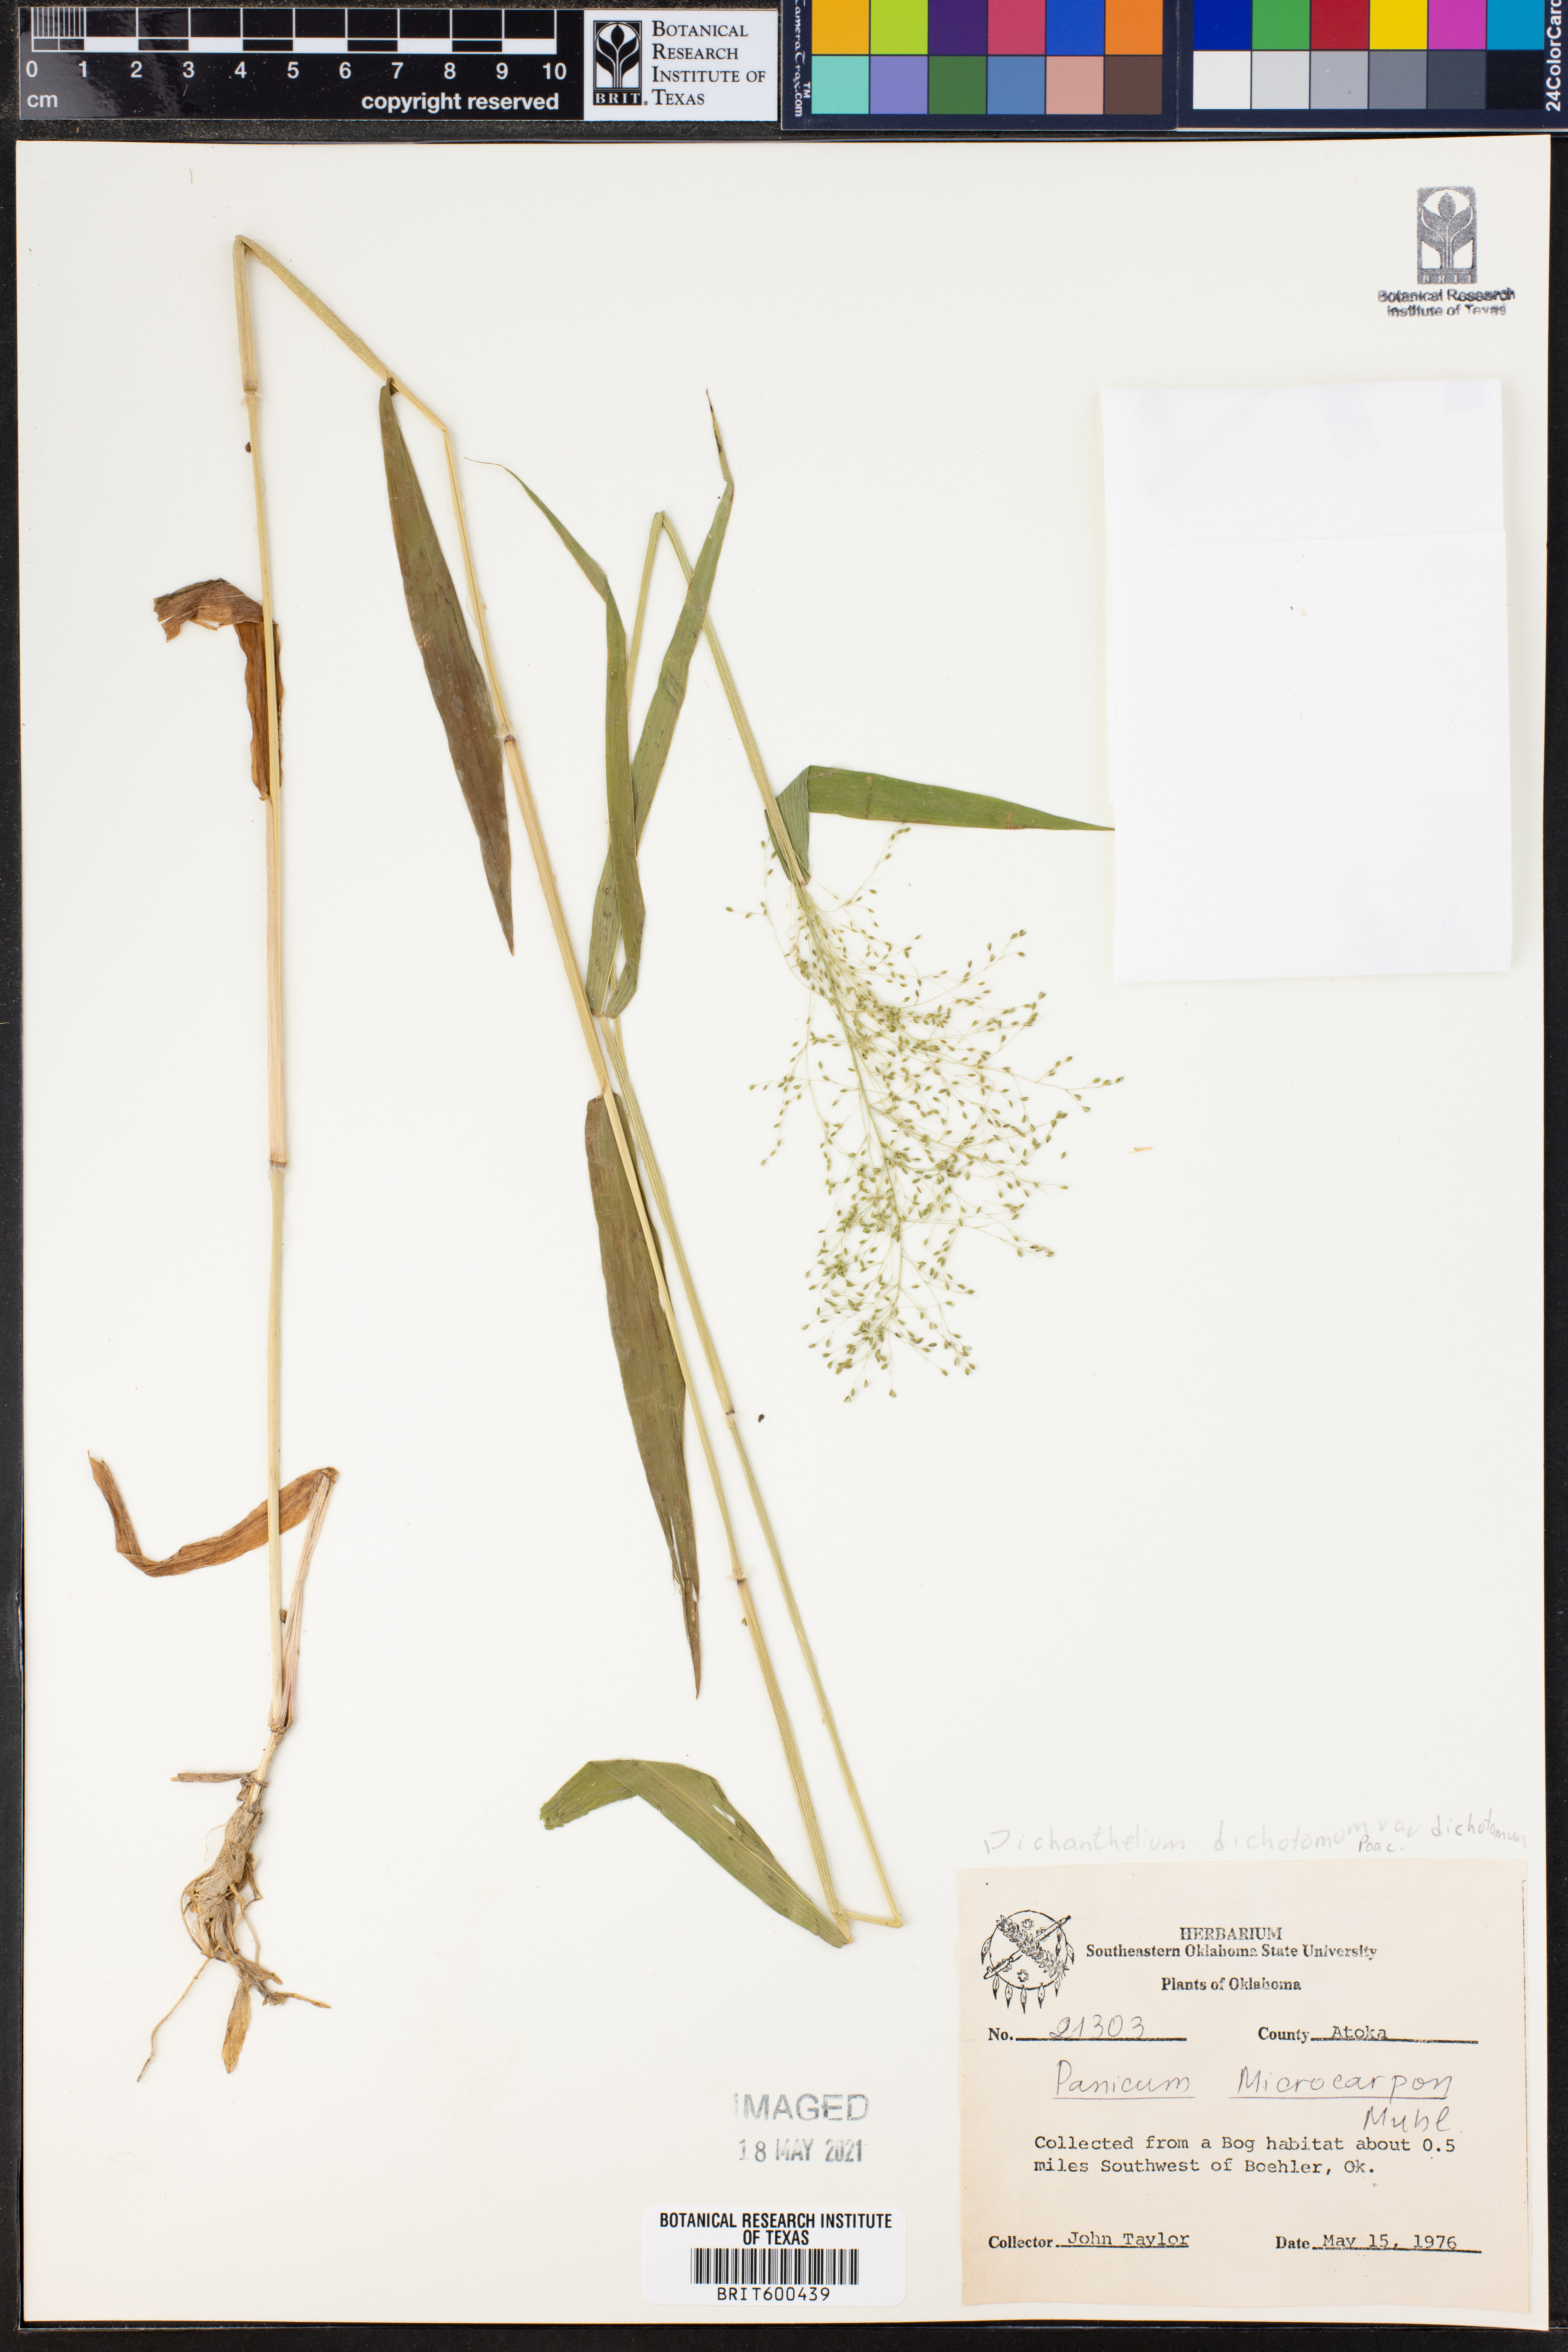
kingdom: Plantae
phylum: Tracheophyta
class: Liliopsida
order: Poales
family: Poaceae
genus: Dichanthelium
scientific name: Dichanthelium dichotomum
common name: Cypress panicgrass
